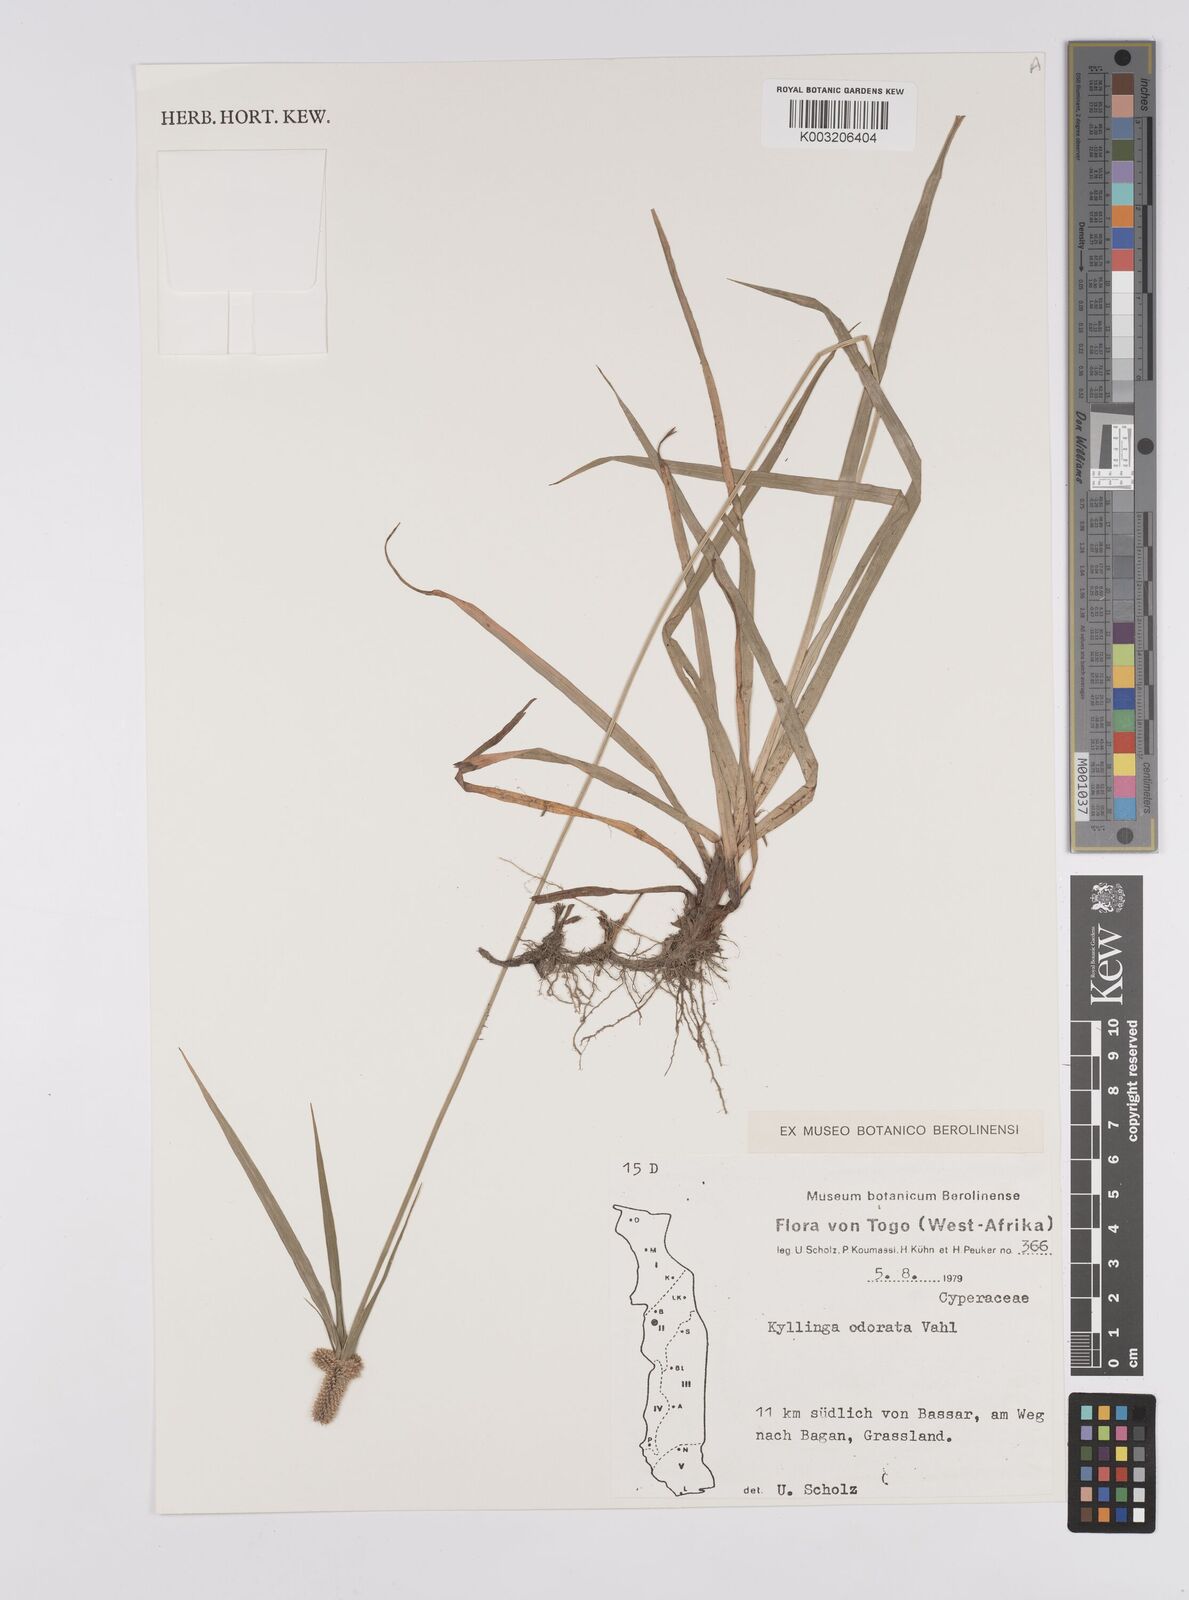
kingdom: Plantae
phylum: Tracheophyta
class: Liliopsida
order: Poales
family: Cyperaceae
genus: Cyperus
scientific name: Cyperus sesquiflorus
